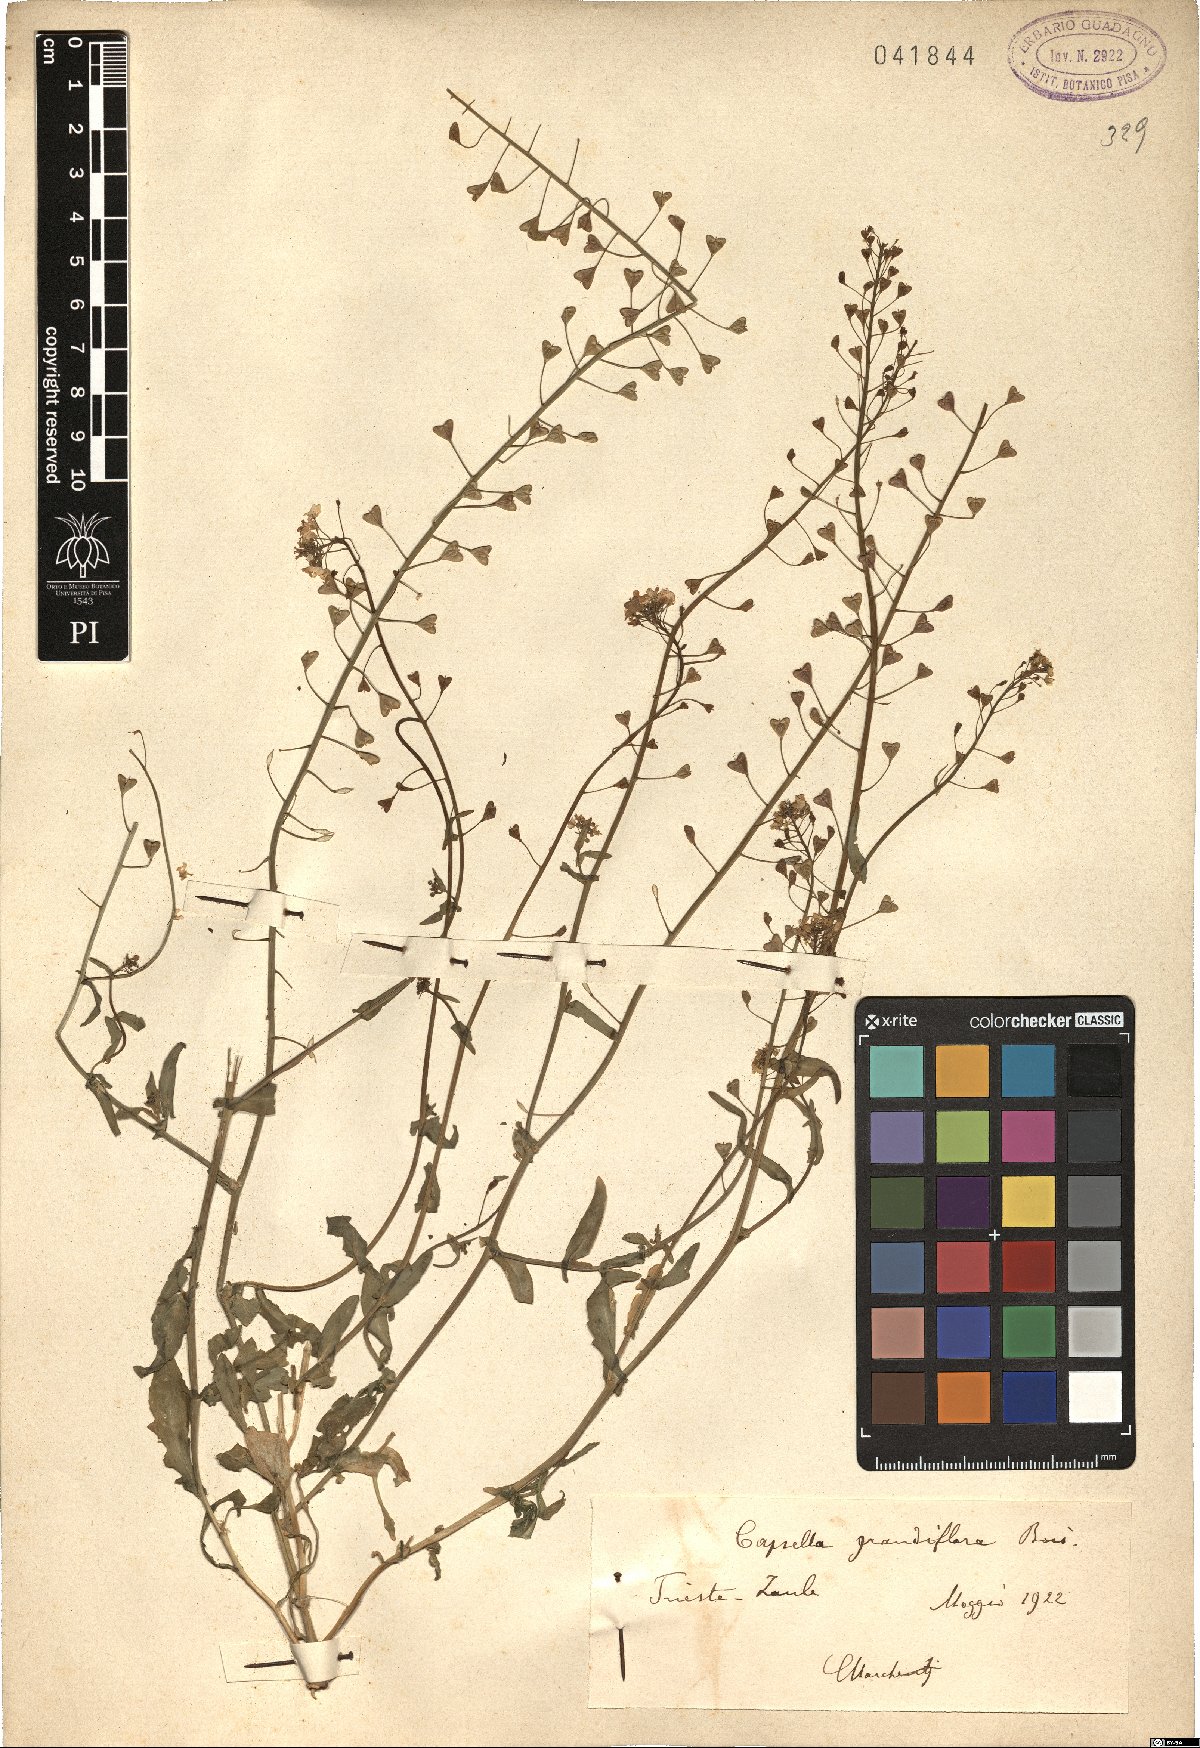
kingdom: Plantae
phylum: Tracheophyta
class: Magnoliopsida
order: Brassicales
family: Brassicaceae
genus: Capsella
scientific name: Capsella grandiflora
